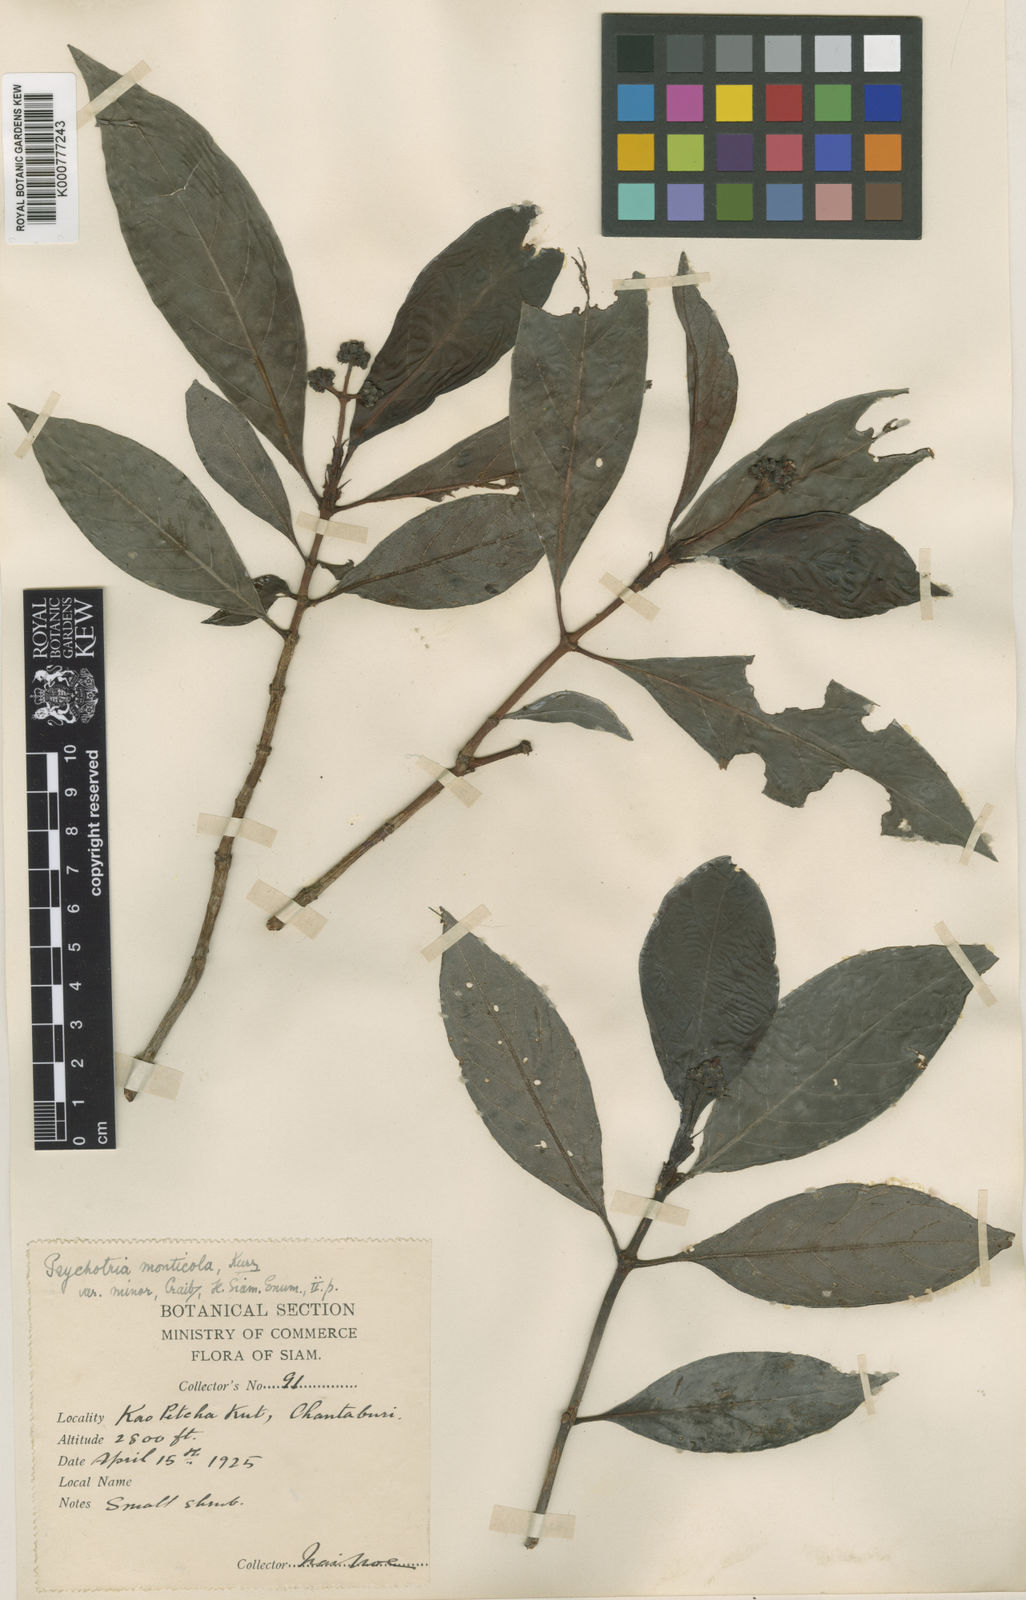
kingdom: Plantae
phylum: Tracheophyta
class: Magnoliopsida
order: Gentianales
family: Rubiaceae
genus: Psychotria
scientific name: Psychotria nubicola
